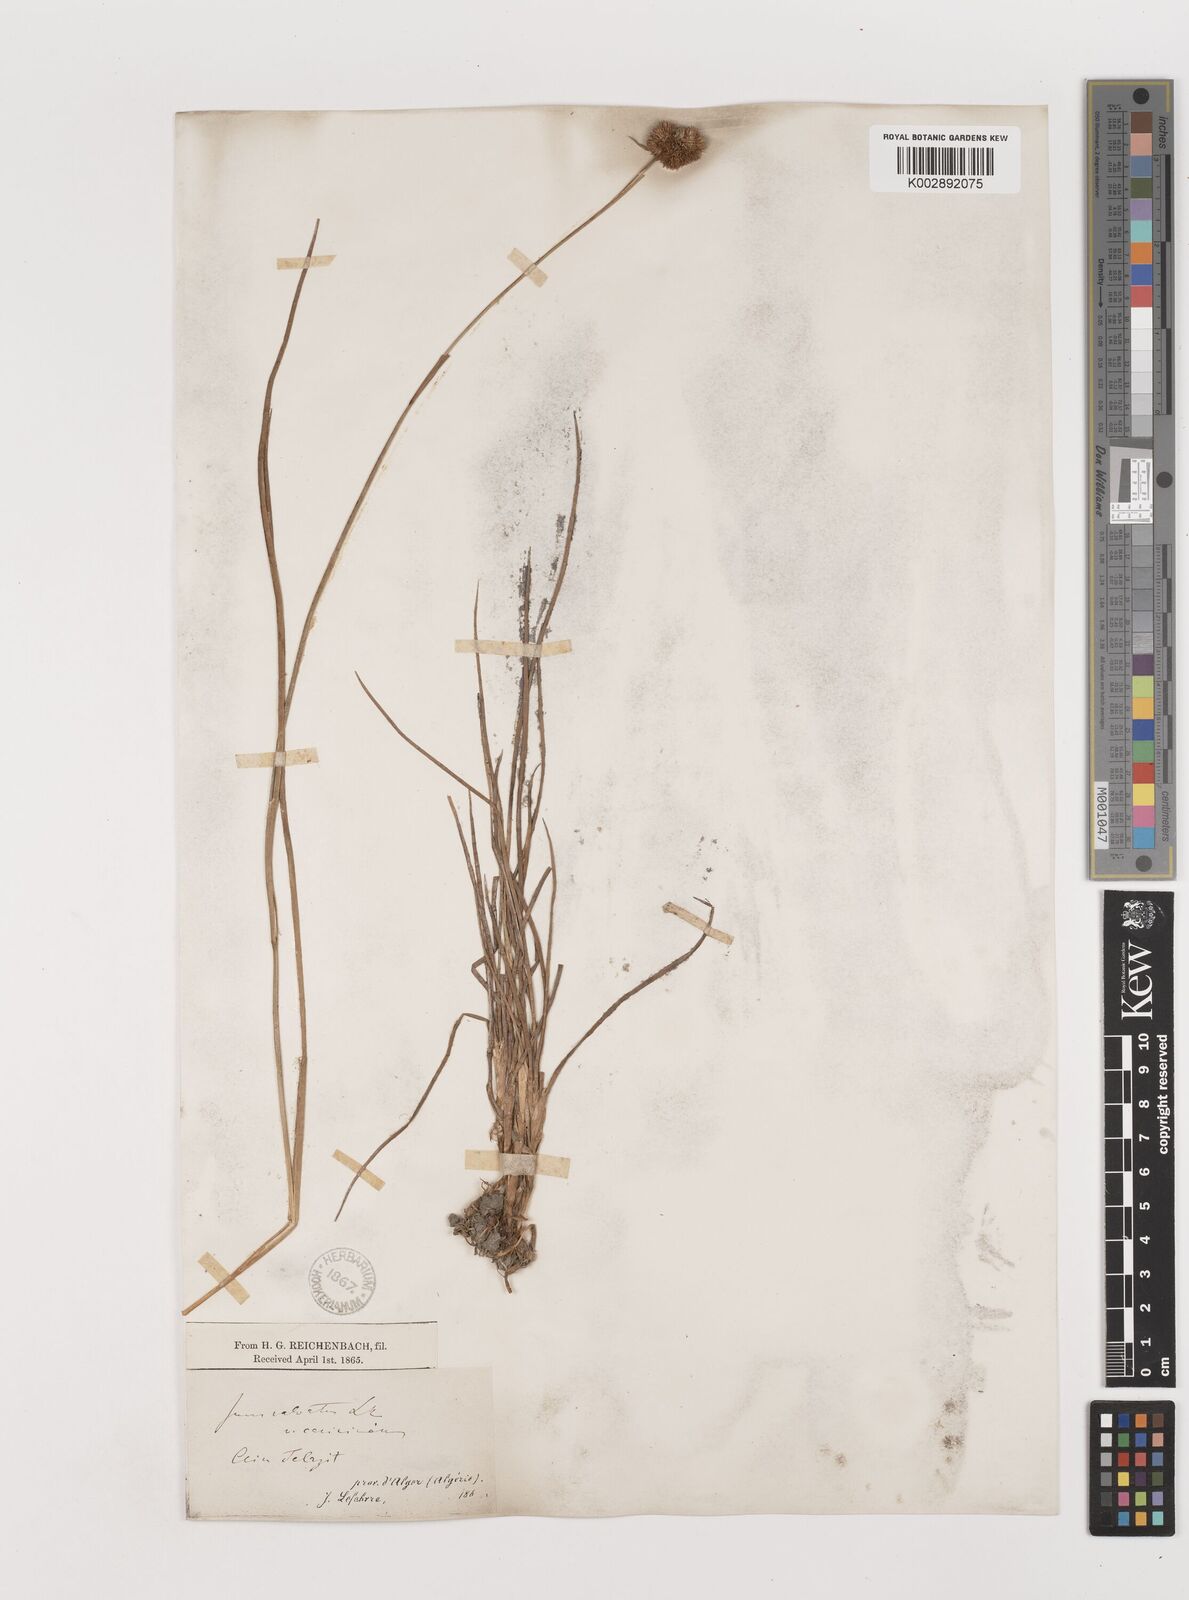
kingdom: Plantae
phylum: Tracheophyta
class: Liliopsida
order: Poales
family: Juncaceae
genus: Juncus
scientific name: Juncus valvatus
